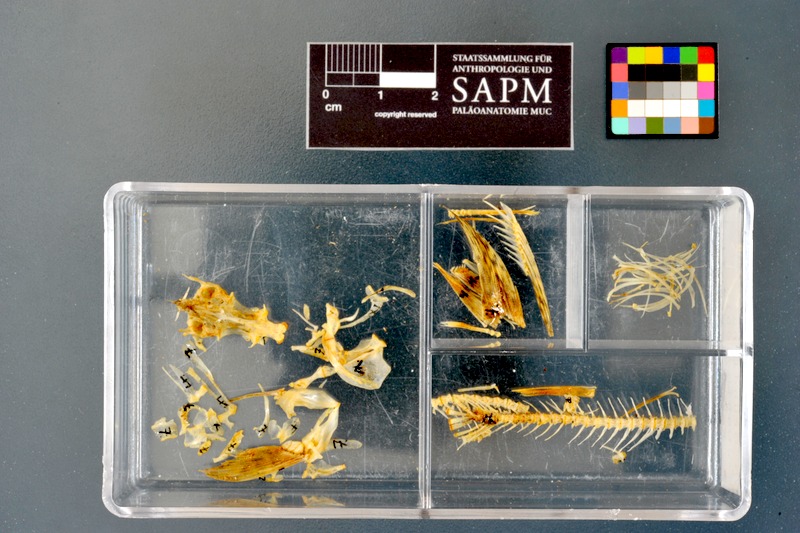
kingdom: Animalia
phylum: Chordata
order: Cypriniformes
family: Cyprinidae
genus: Gobio
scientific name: Gobio gobio
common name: Gudgeon
